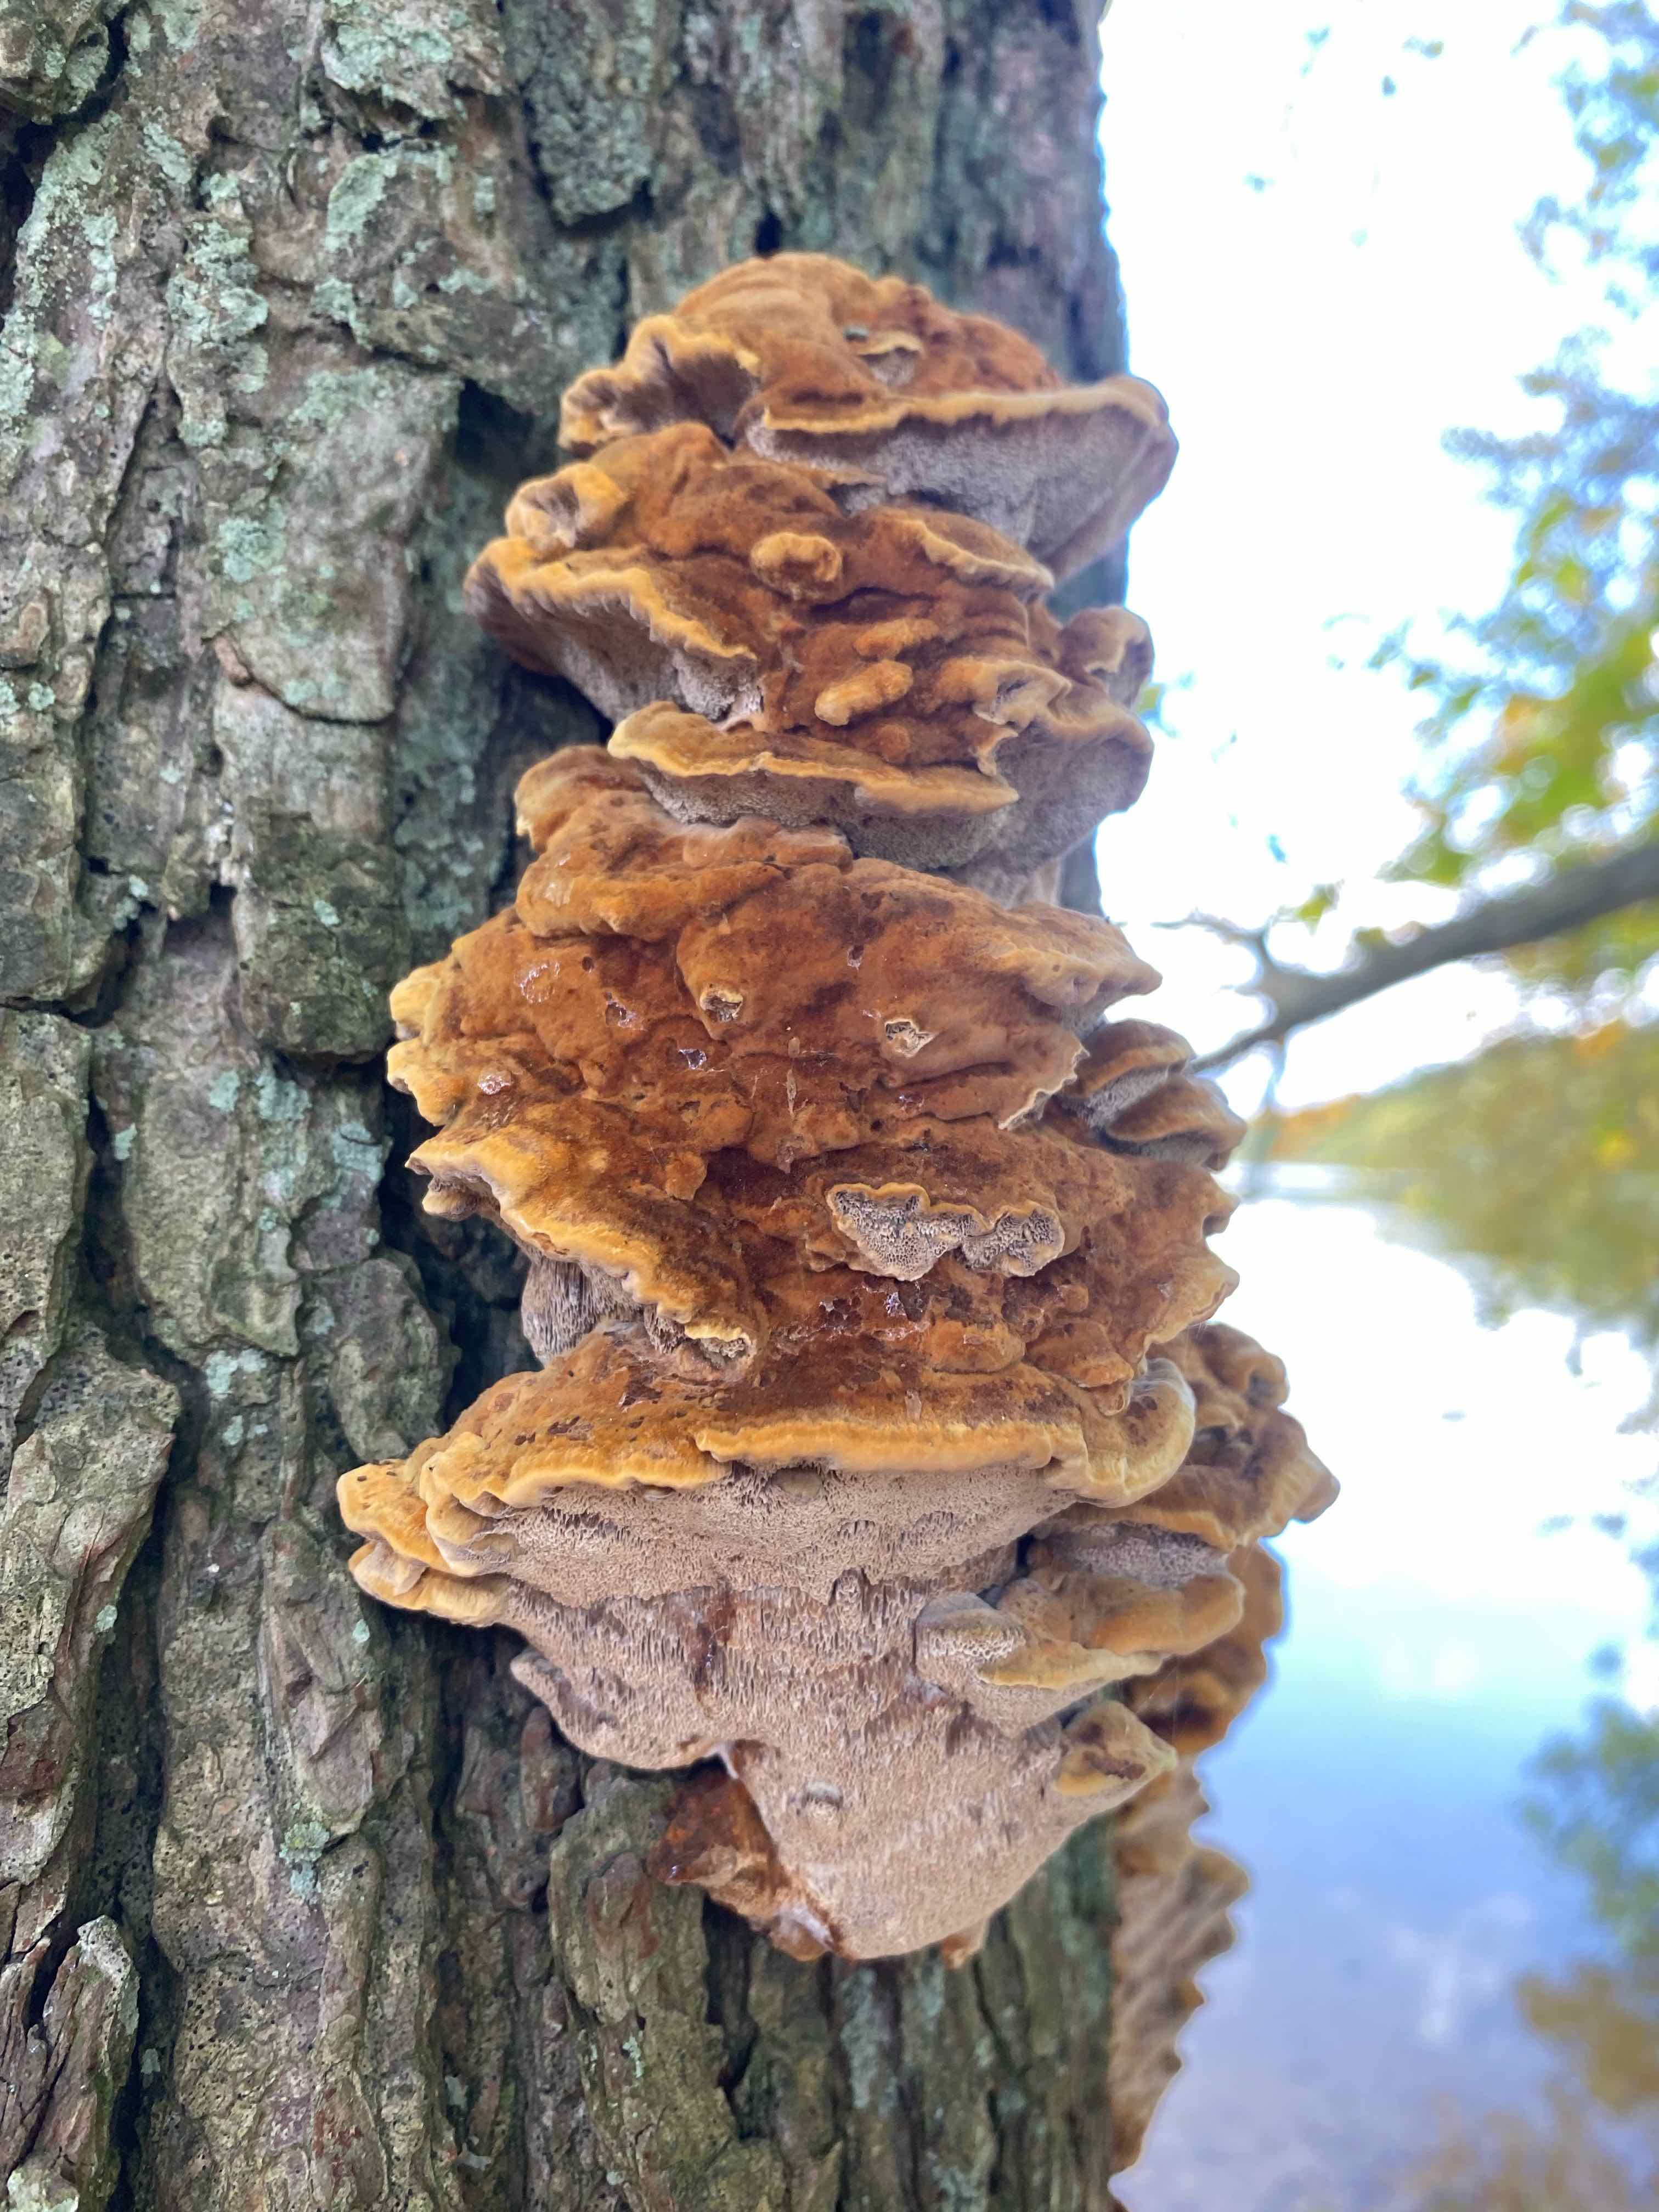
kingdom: Fungi
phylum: Basidiomycota
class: Agaricomycetes
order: Hymenochaetales
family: Hymenochaetaceae
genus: Xanthoporia
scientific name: Xanthoporia radiata
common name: elle-spejlporesvamp
